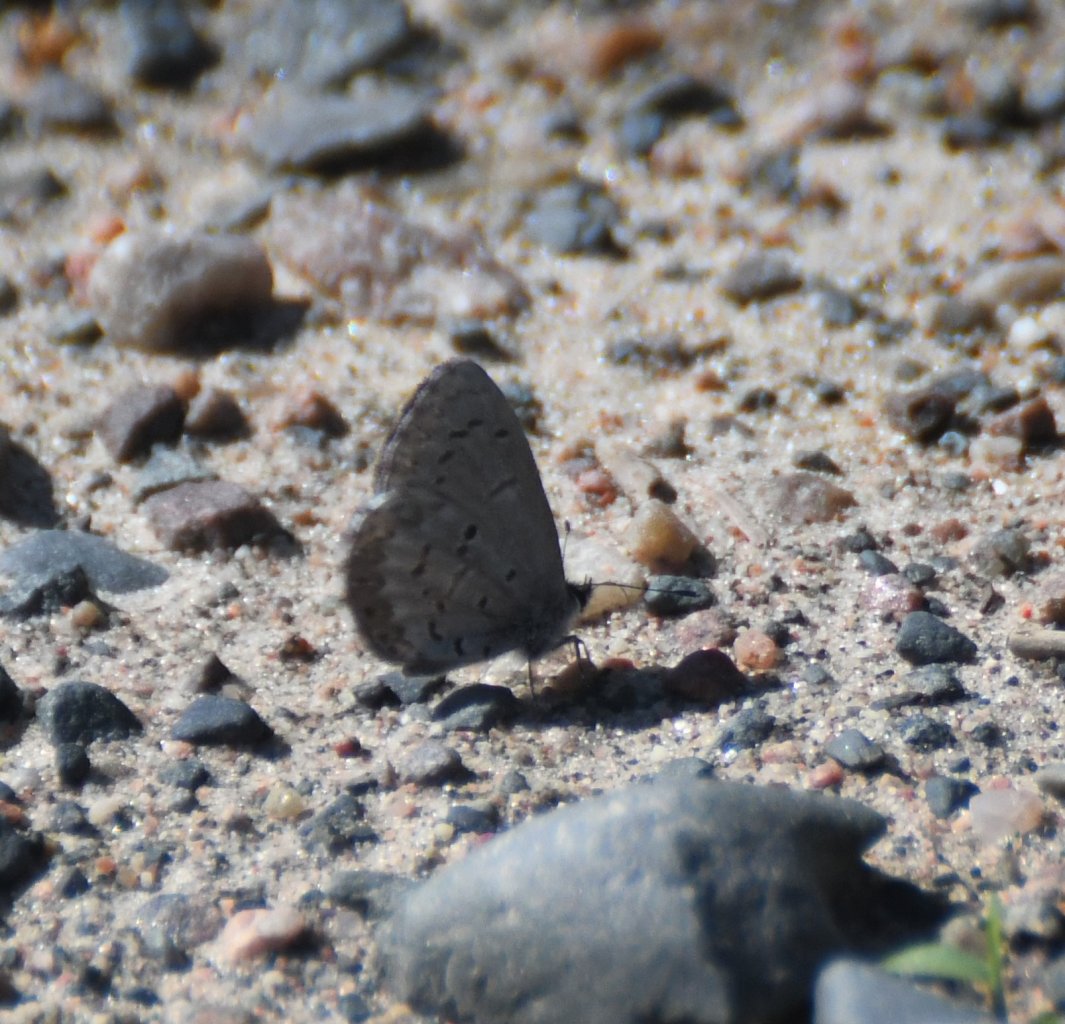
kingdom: Animalia
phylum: Arthropoda
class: Insecta
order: Lepidoptera
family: Lycaenidae
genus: Celastrina
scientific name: Celastrina lucia
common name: Northern Spring Azure
